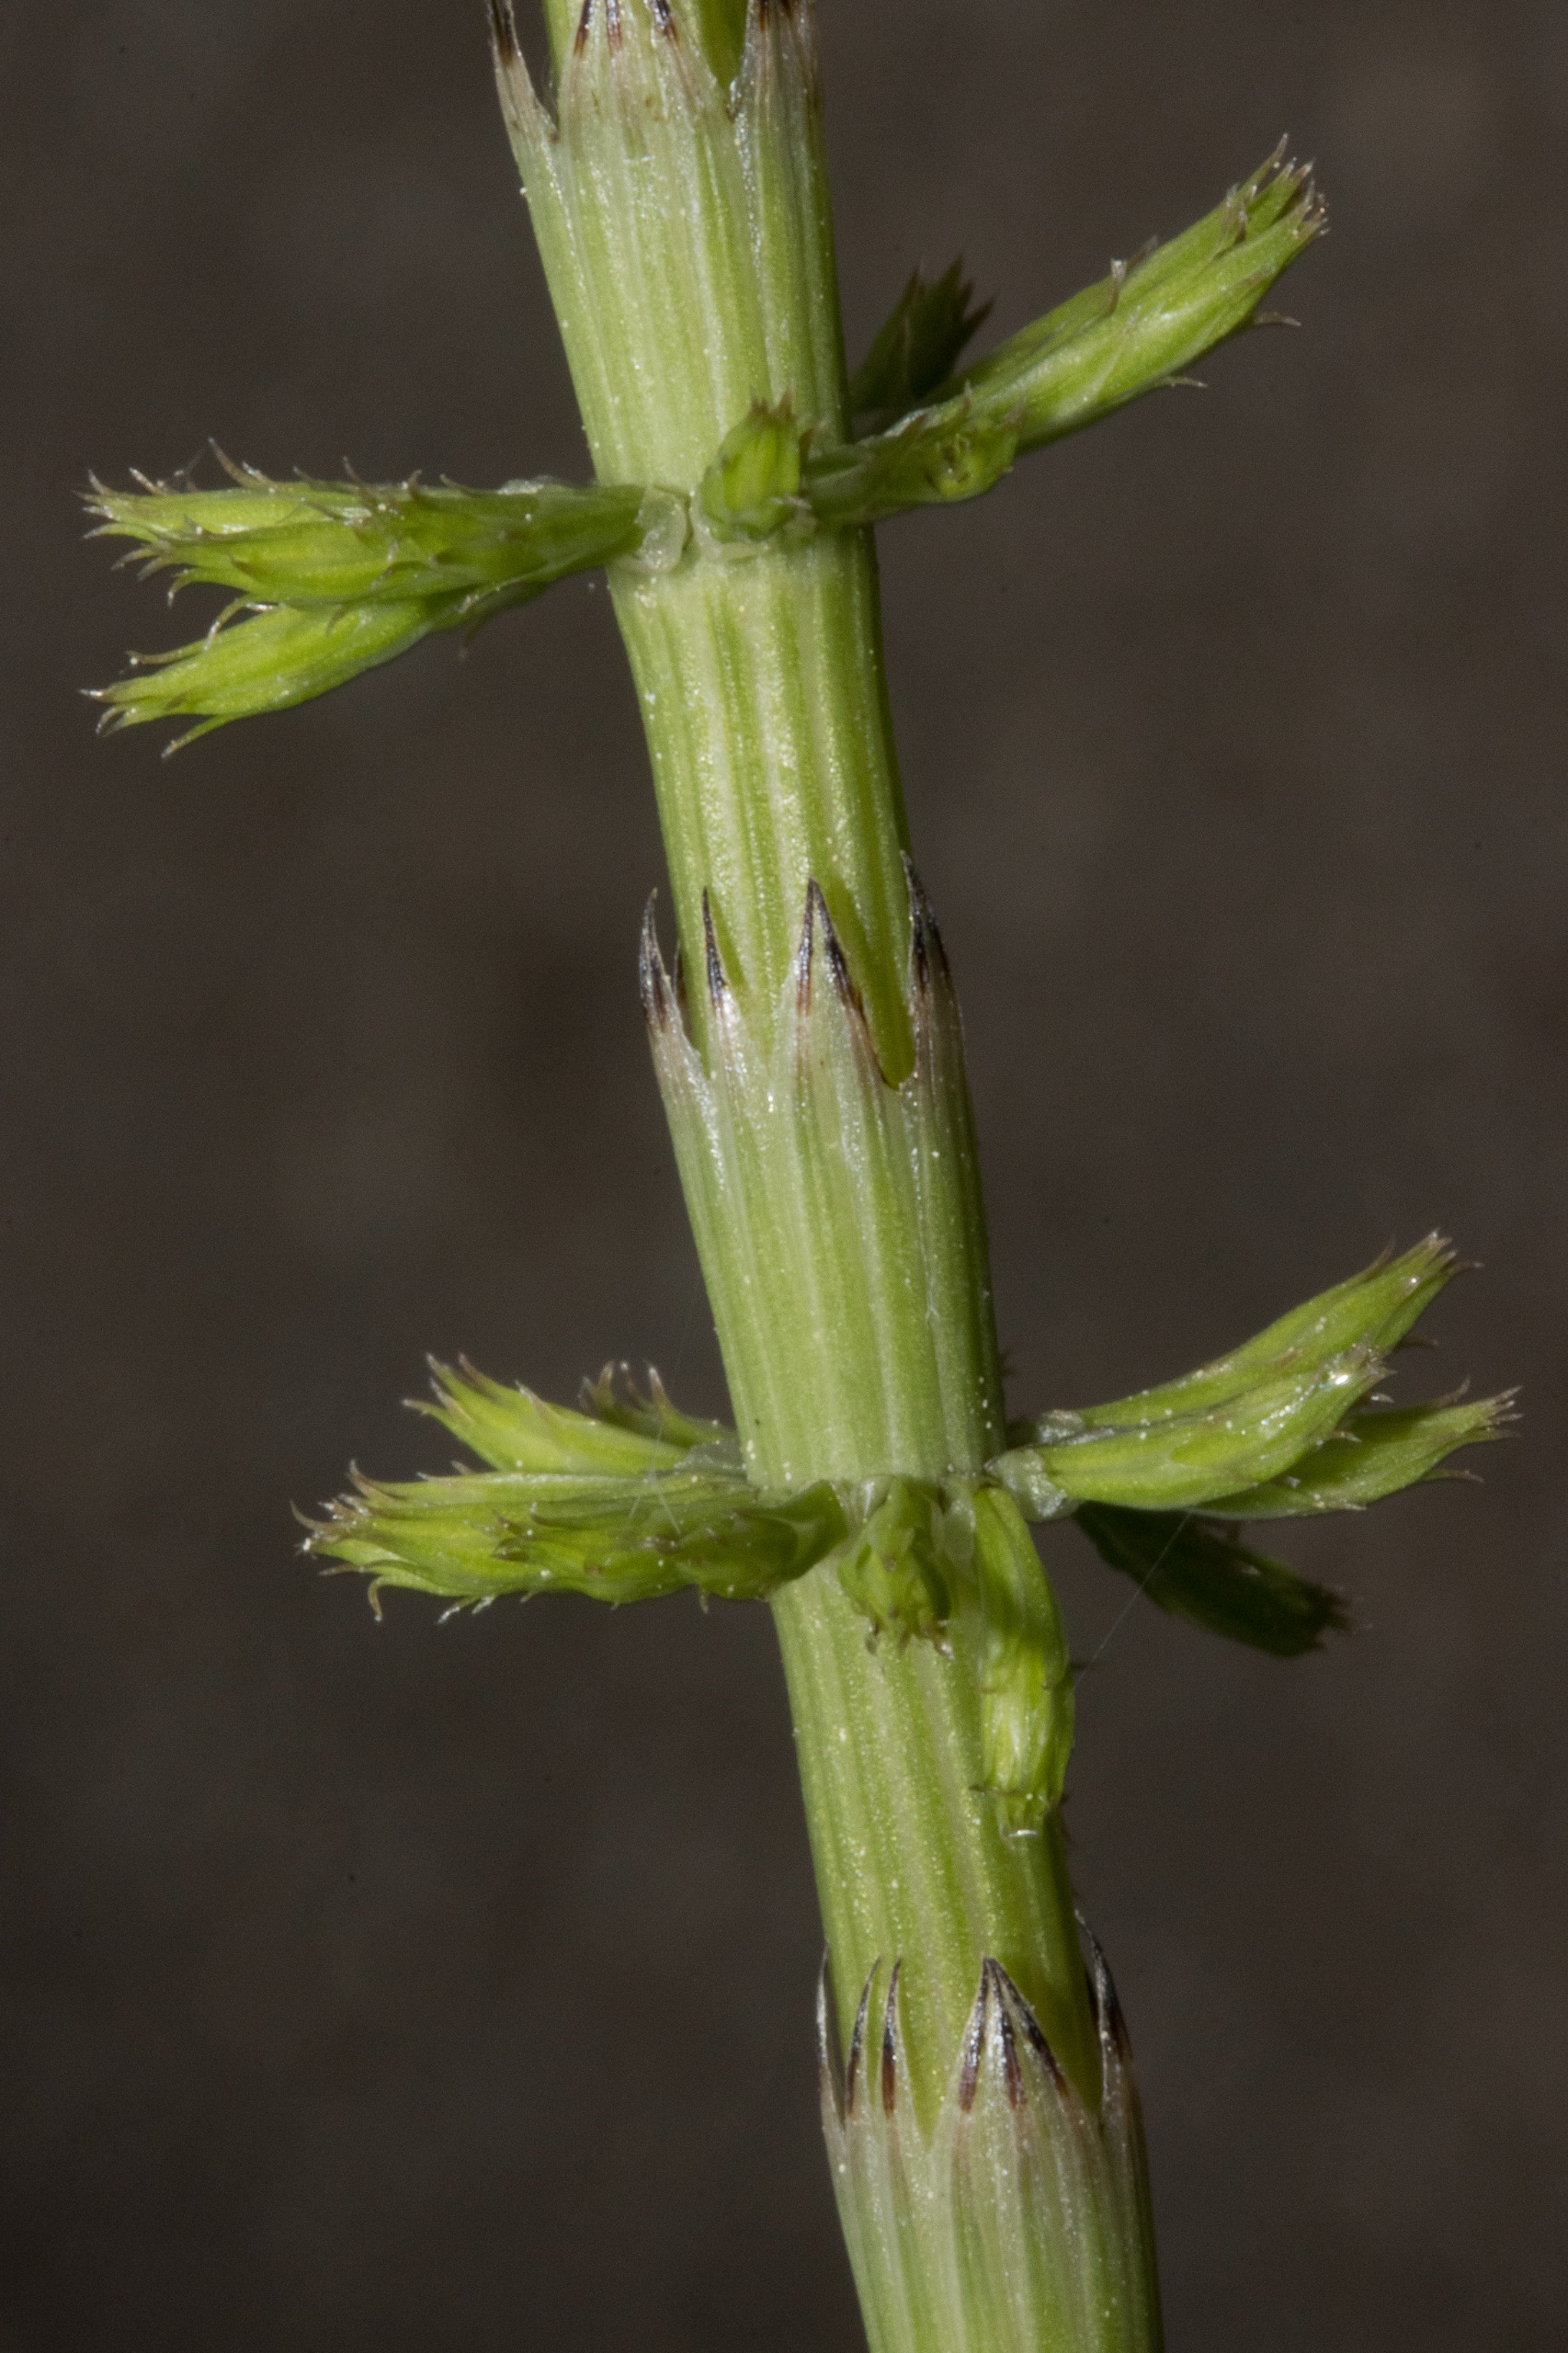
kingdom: Plantae
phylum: Tracheophyta
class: Polypodiopsida
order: Equisetales
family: Equisetaceae
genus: Equisetum
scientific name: Equisetum arvense
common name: Ager-padderok
